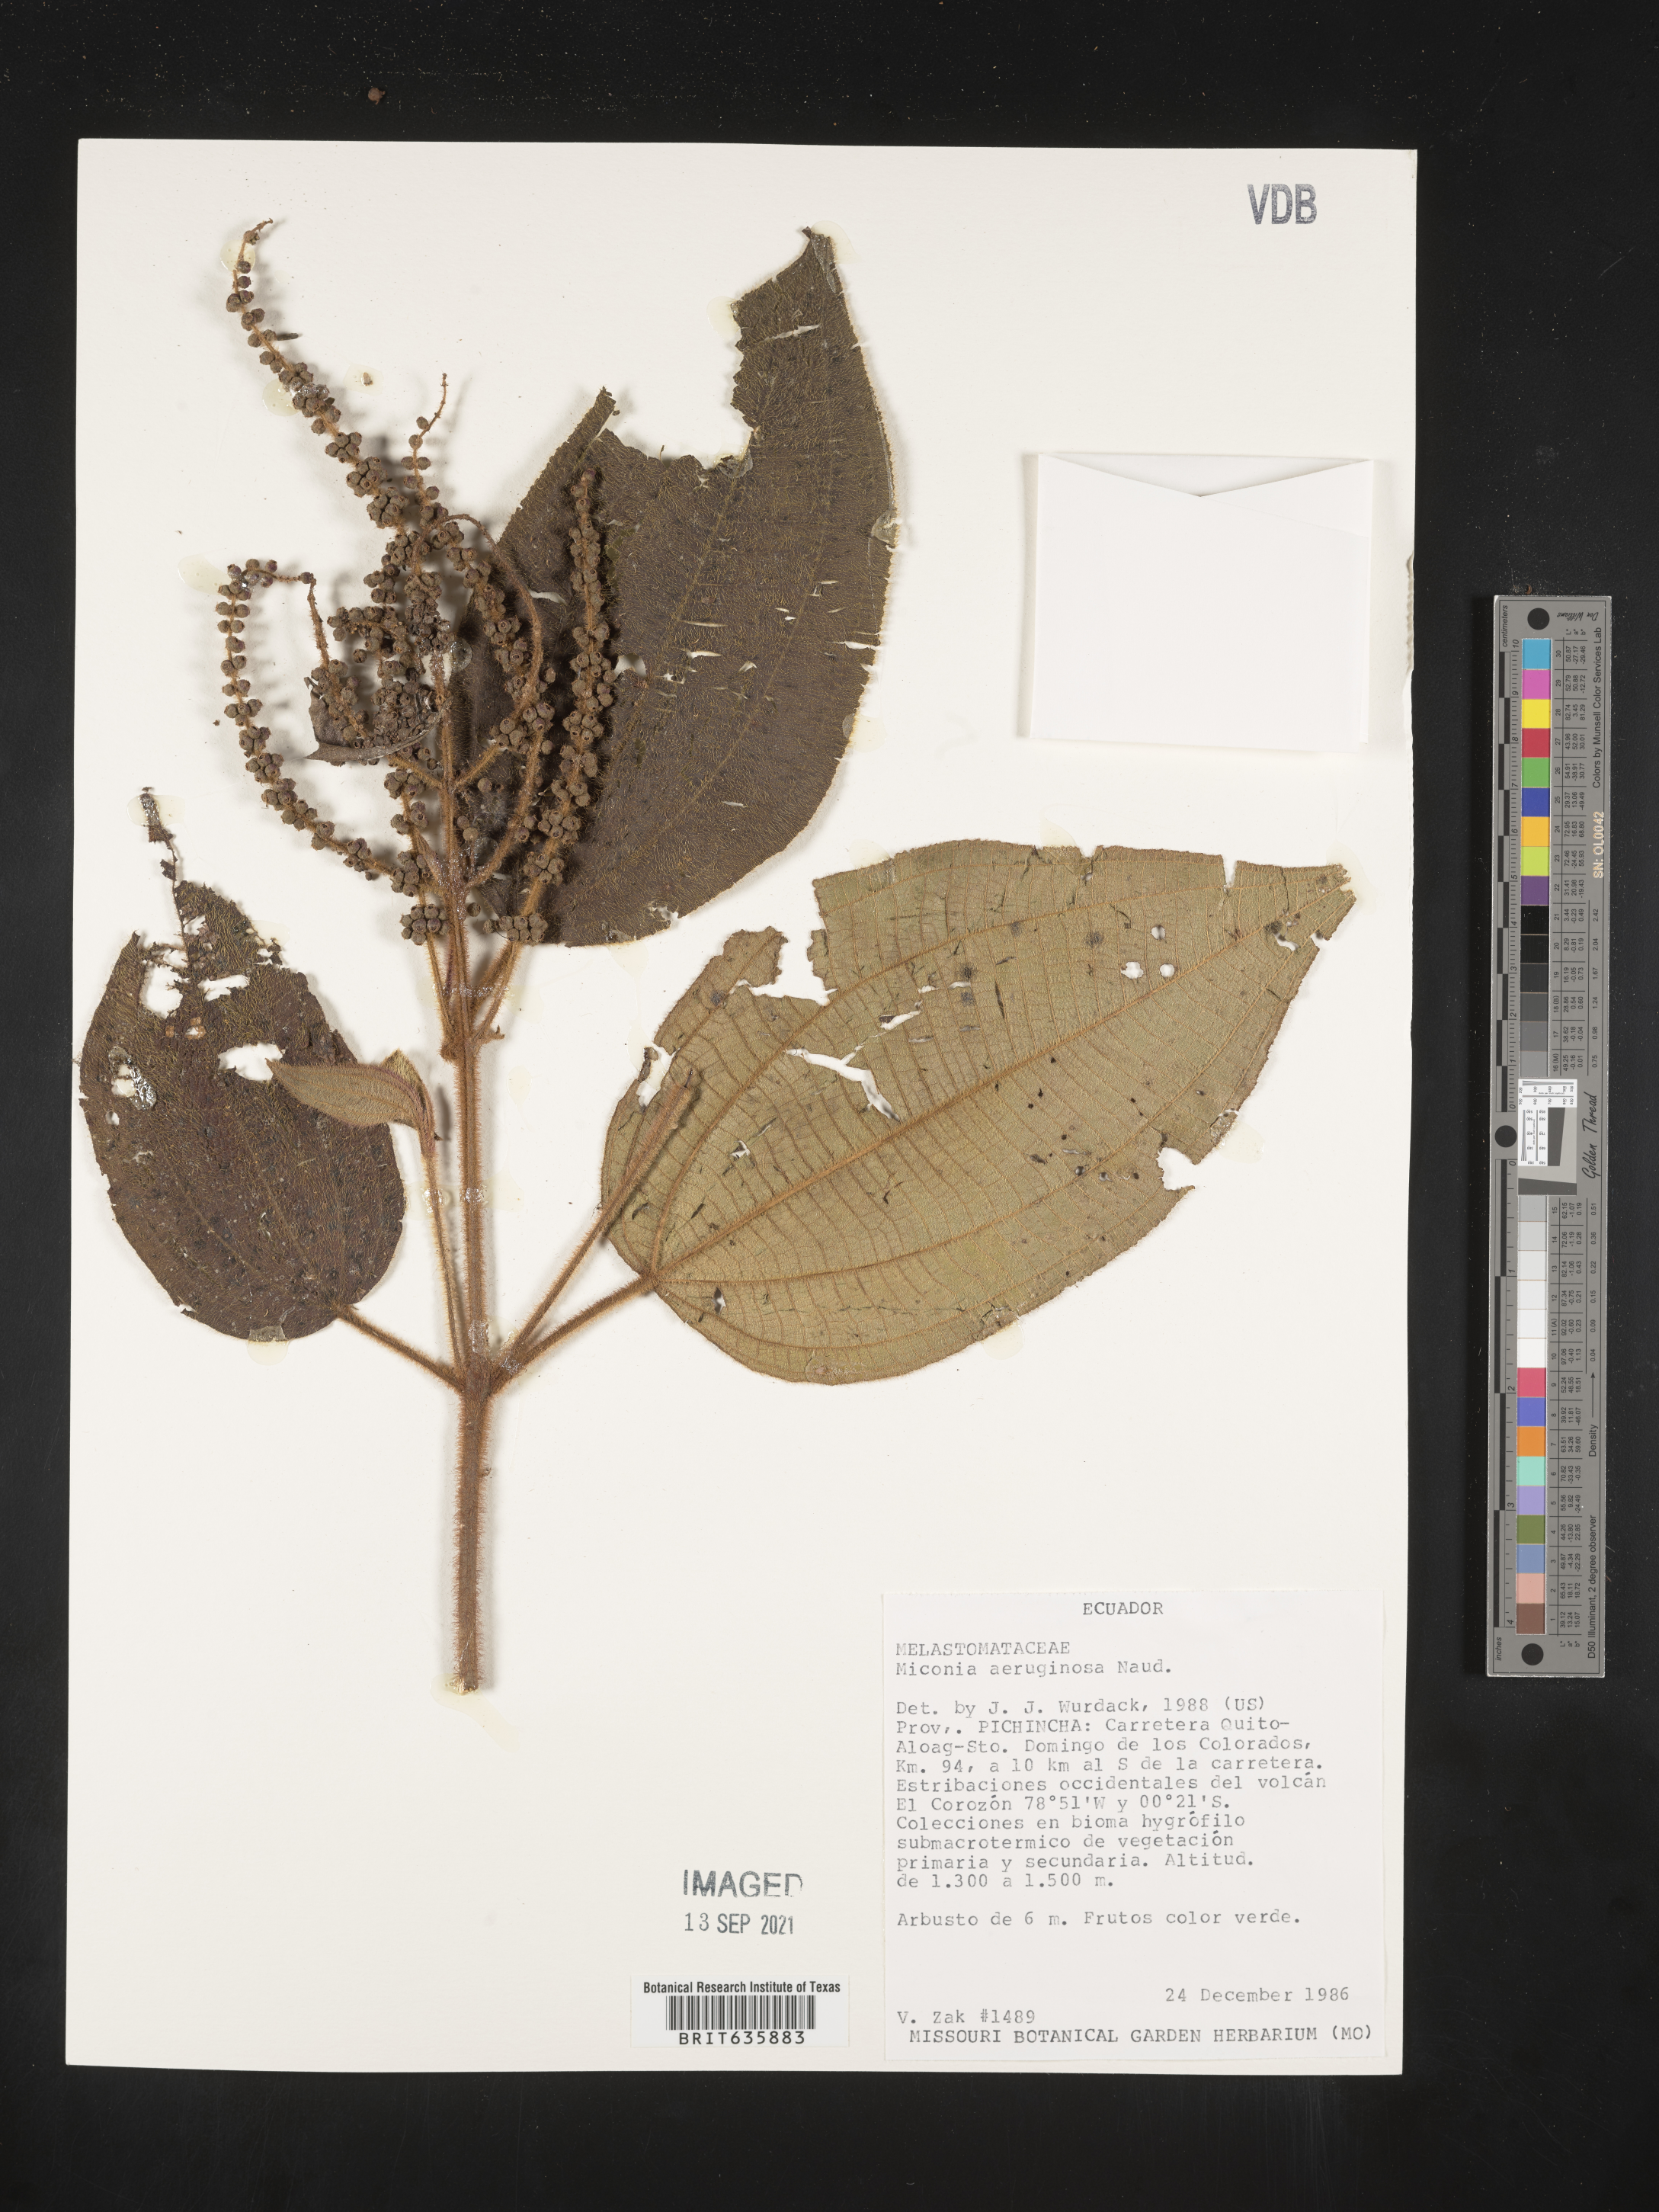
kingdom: Plantae
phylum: Tracheophyta
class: Magnoliopsida
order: Myrtales
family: Melastomataceae
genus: Miconia
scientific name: Miconia
